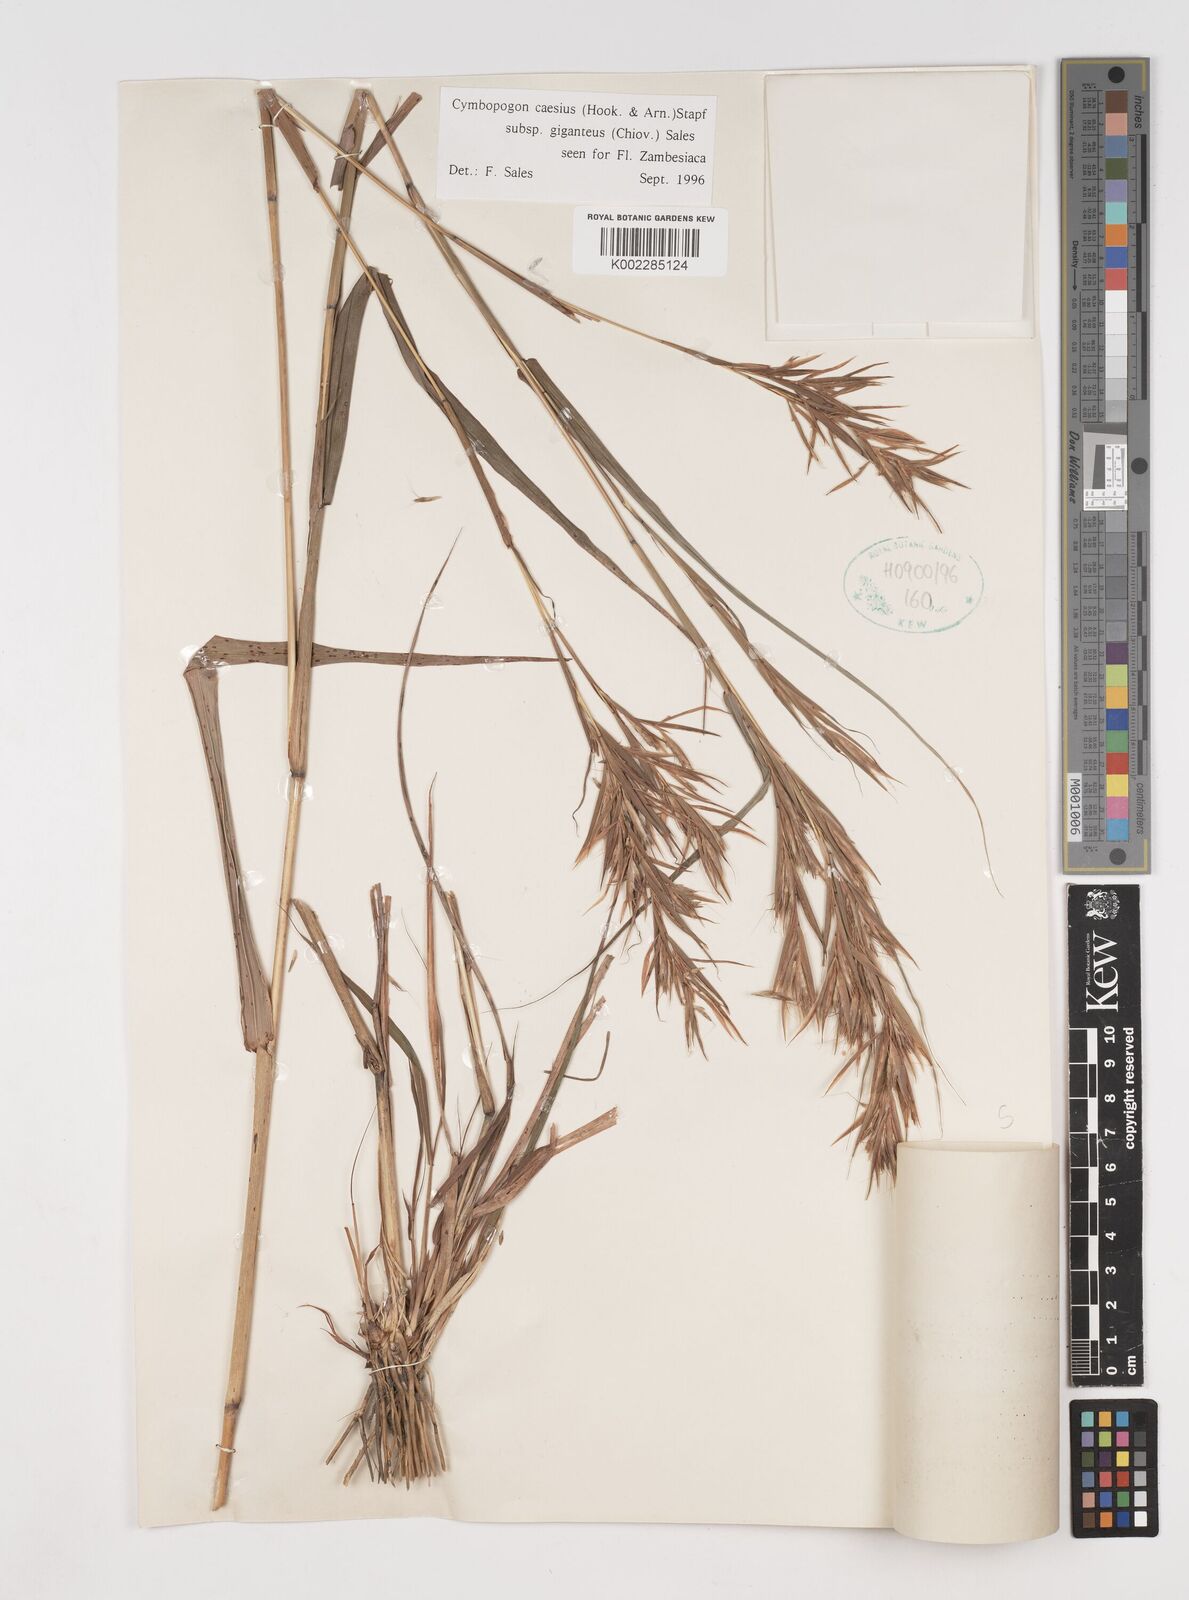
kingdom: Plantae
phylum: Tracheophyta
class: Liliopsida
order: Poales
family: Poaceae
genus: Cymbopogon
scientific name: Cymbopogon giganteus
